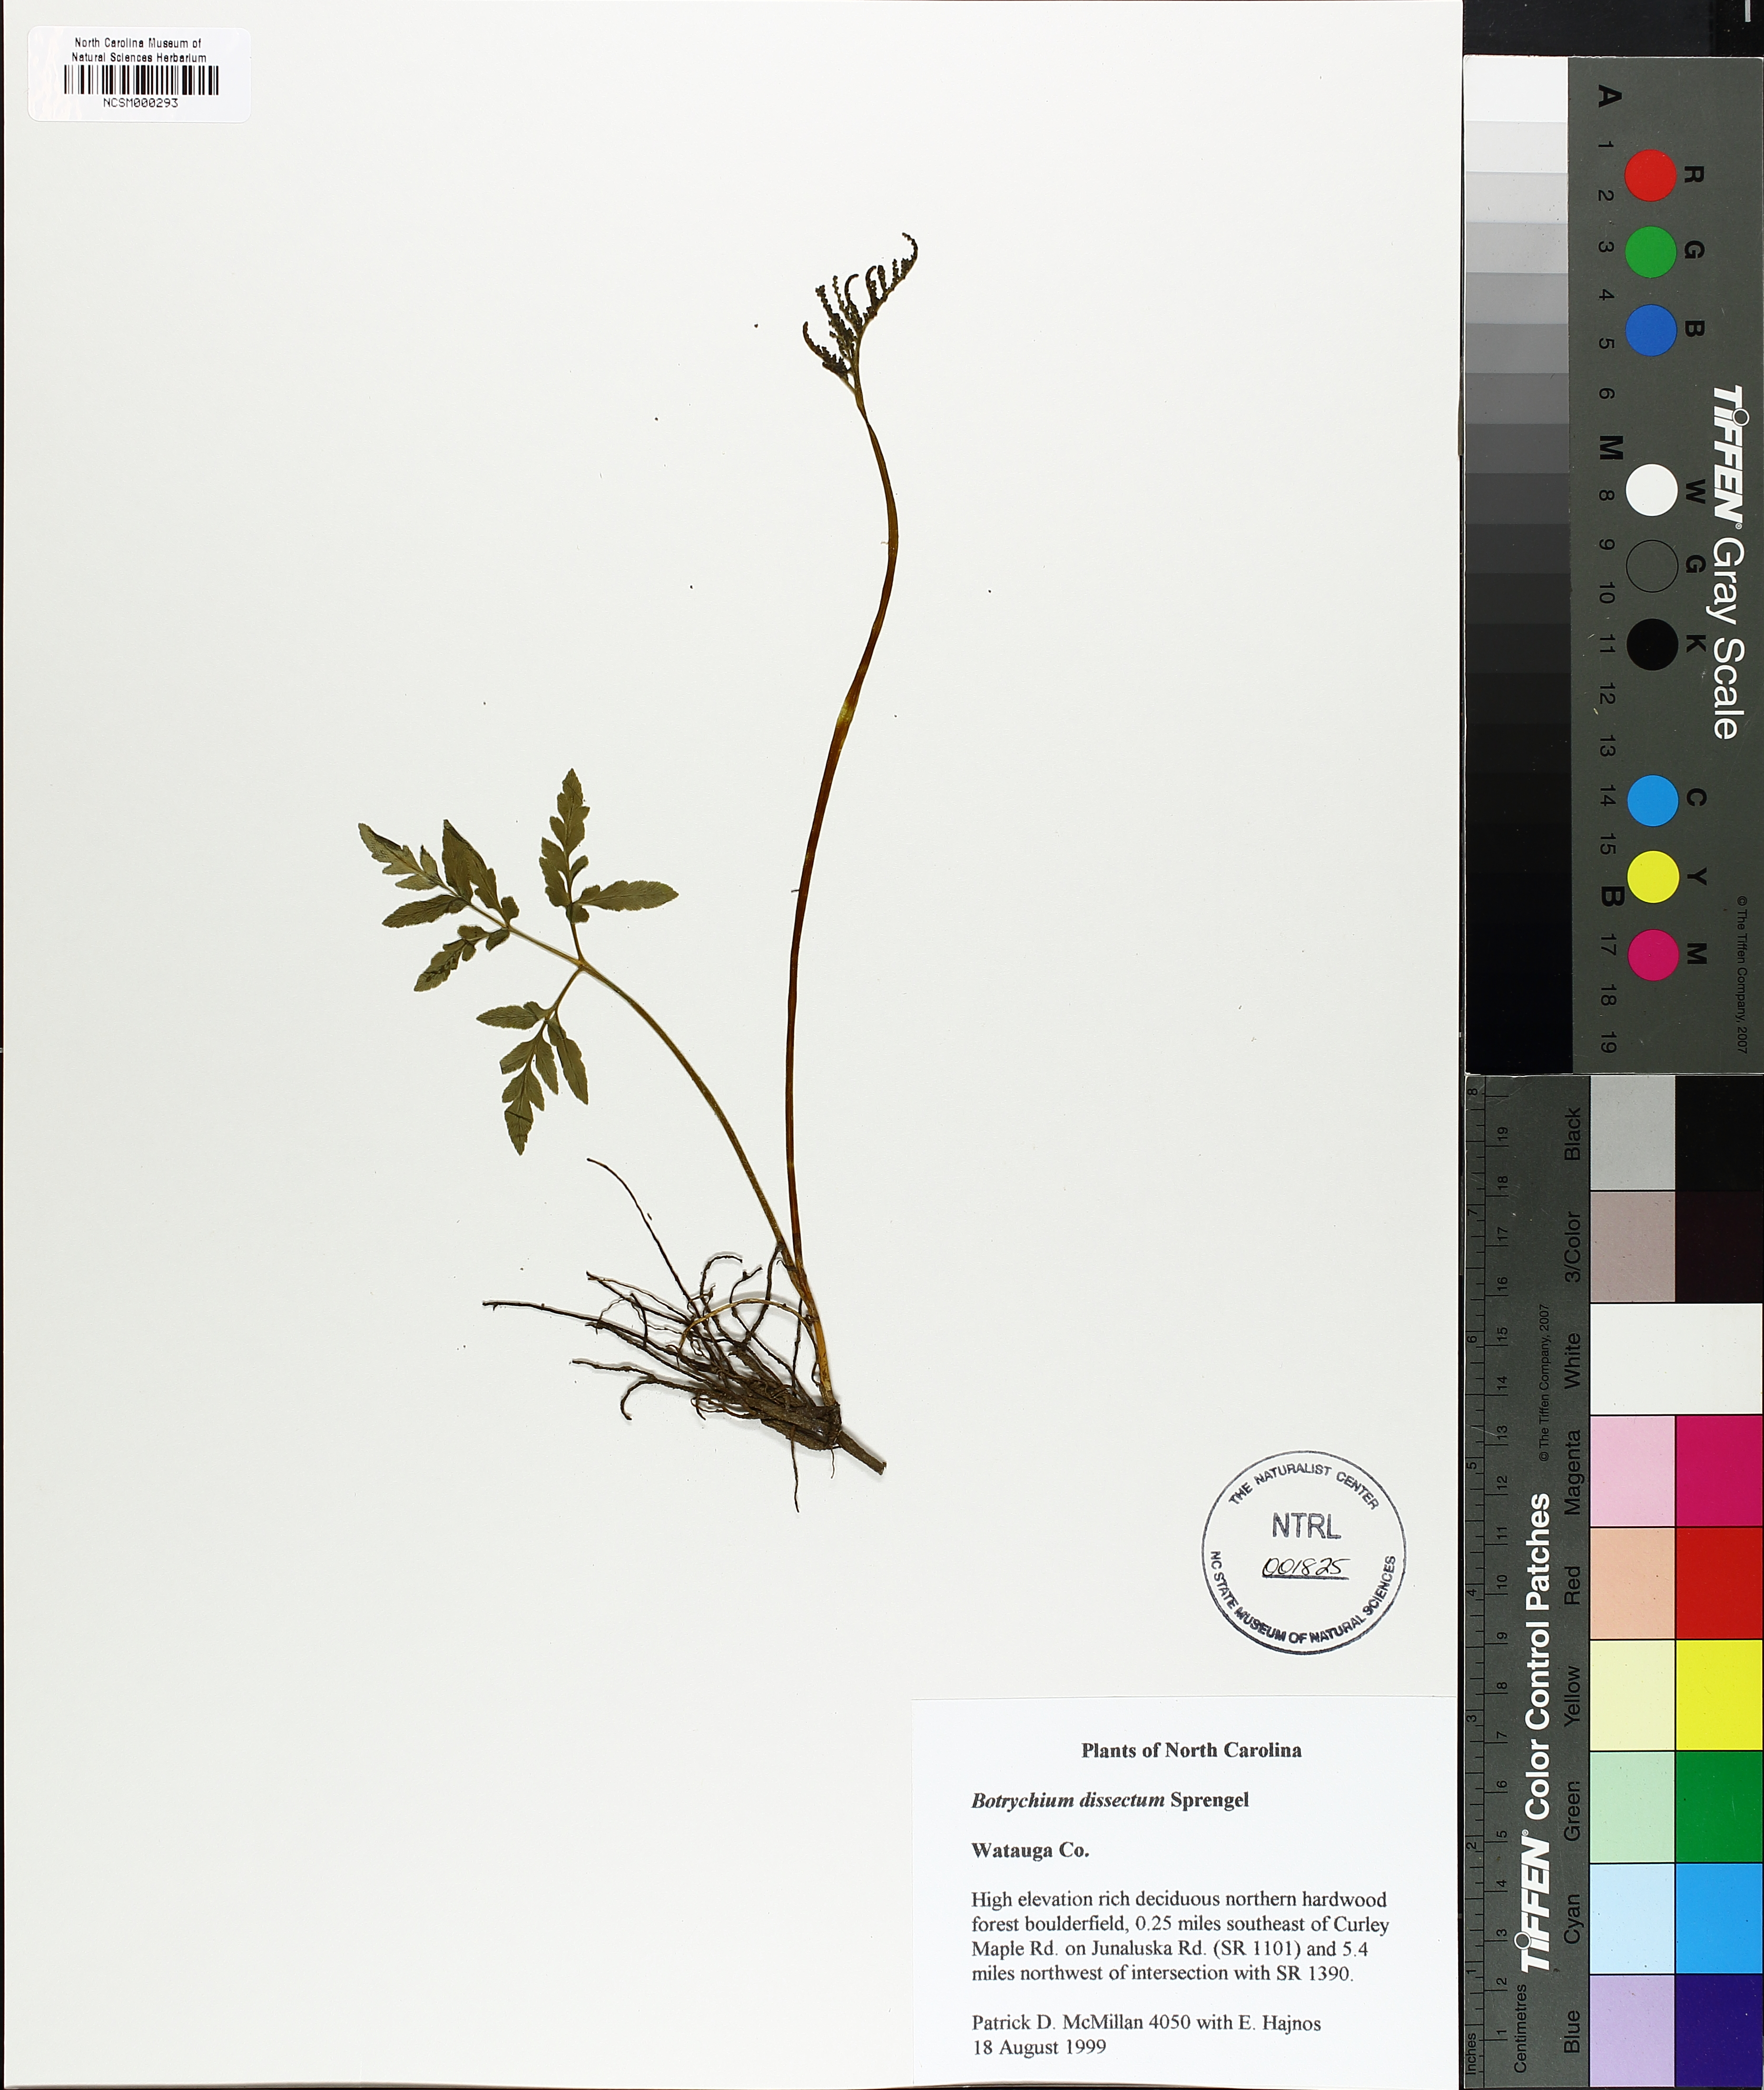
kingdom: Plantae
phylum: Tracheophyta
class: Polypodiopsida
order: Ophioglossales
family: Ophioglossaceae
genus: Sceptridium
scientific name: Sceptridium dissectum
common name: Cut-leaved grapefern
